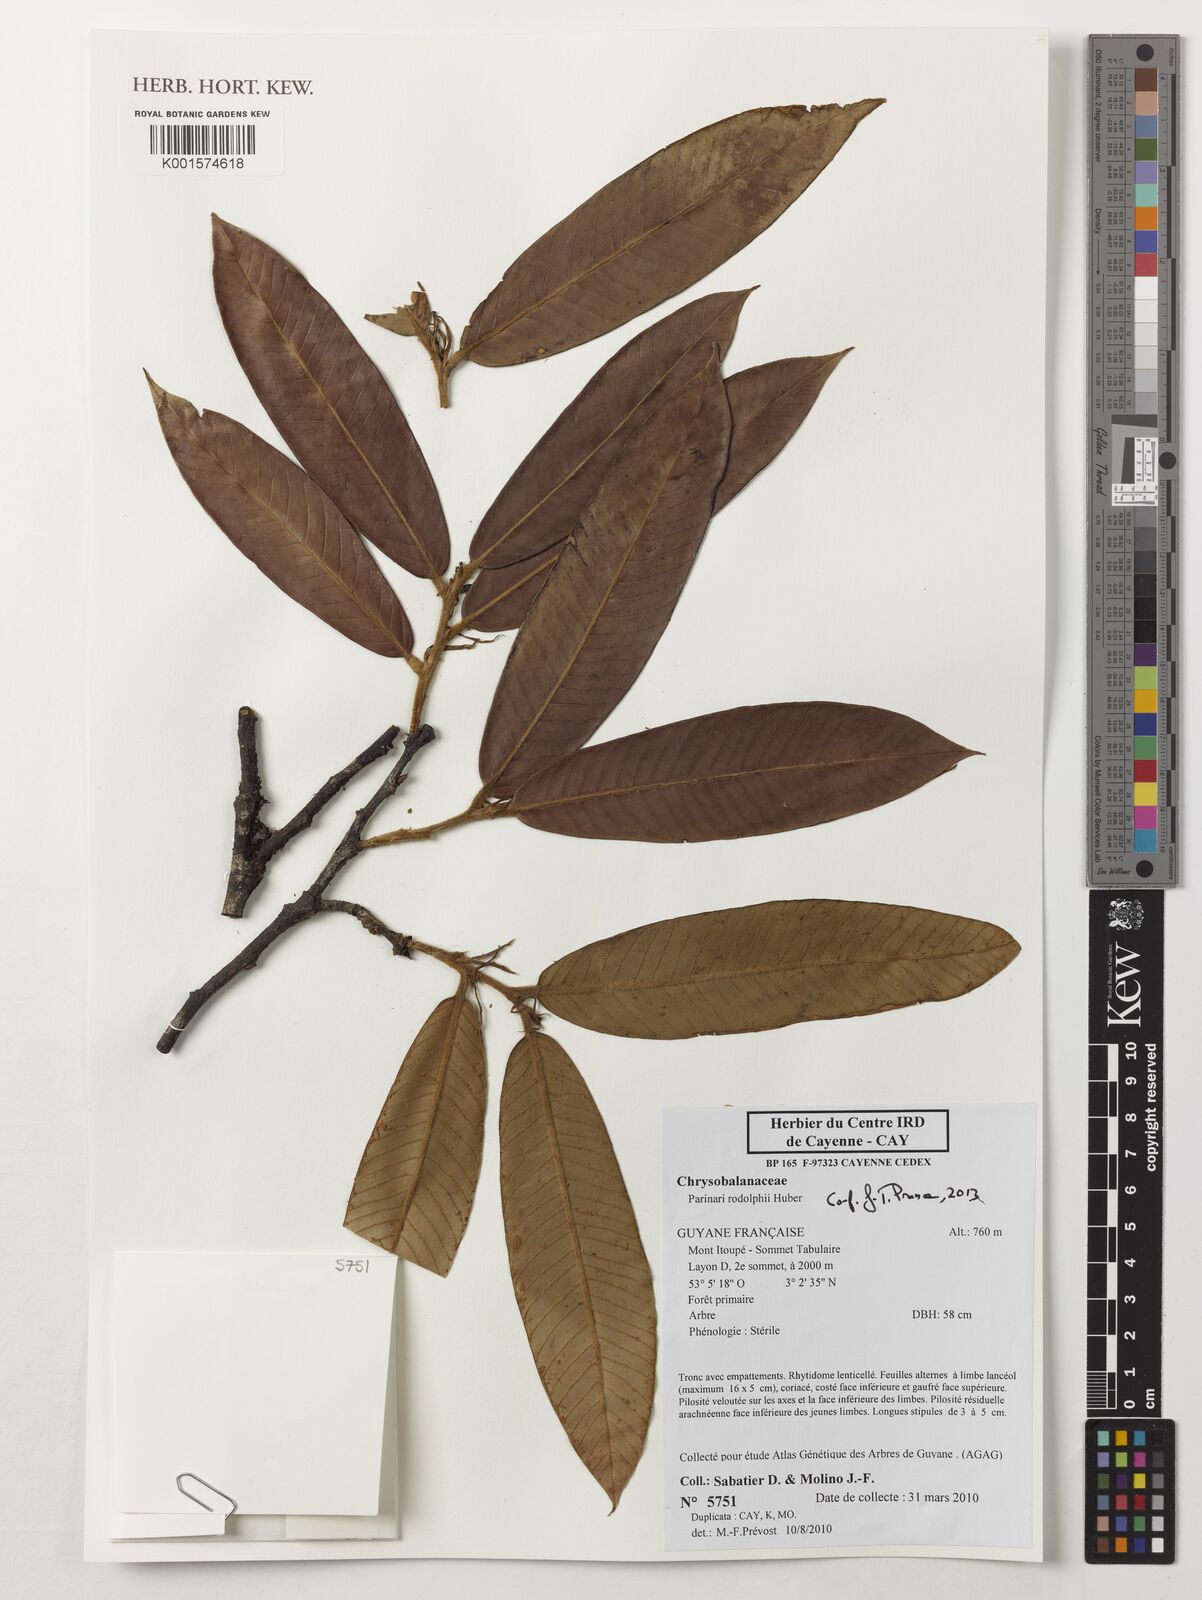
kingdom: Plantae
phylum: Tracheophyta
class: Magnoliopsida
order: Malpighiales
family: Chrysobalanaceae
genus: Parinari
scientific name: Parinari rodolphii
